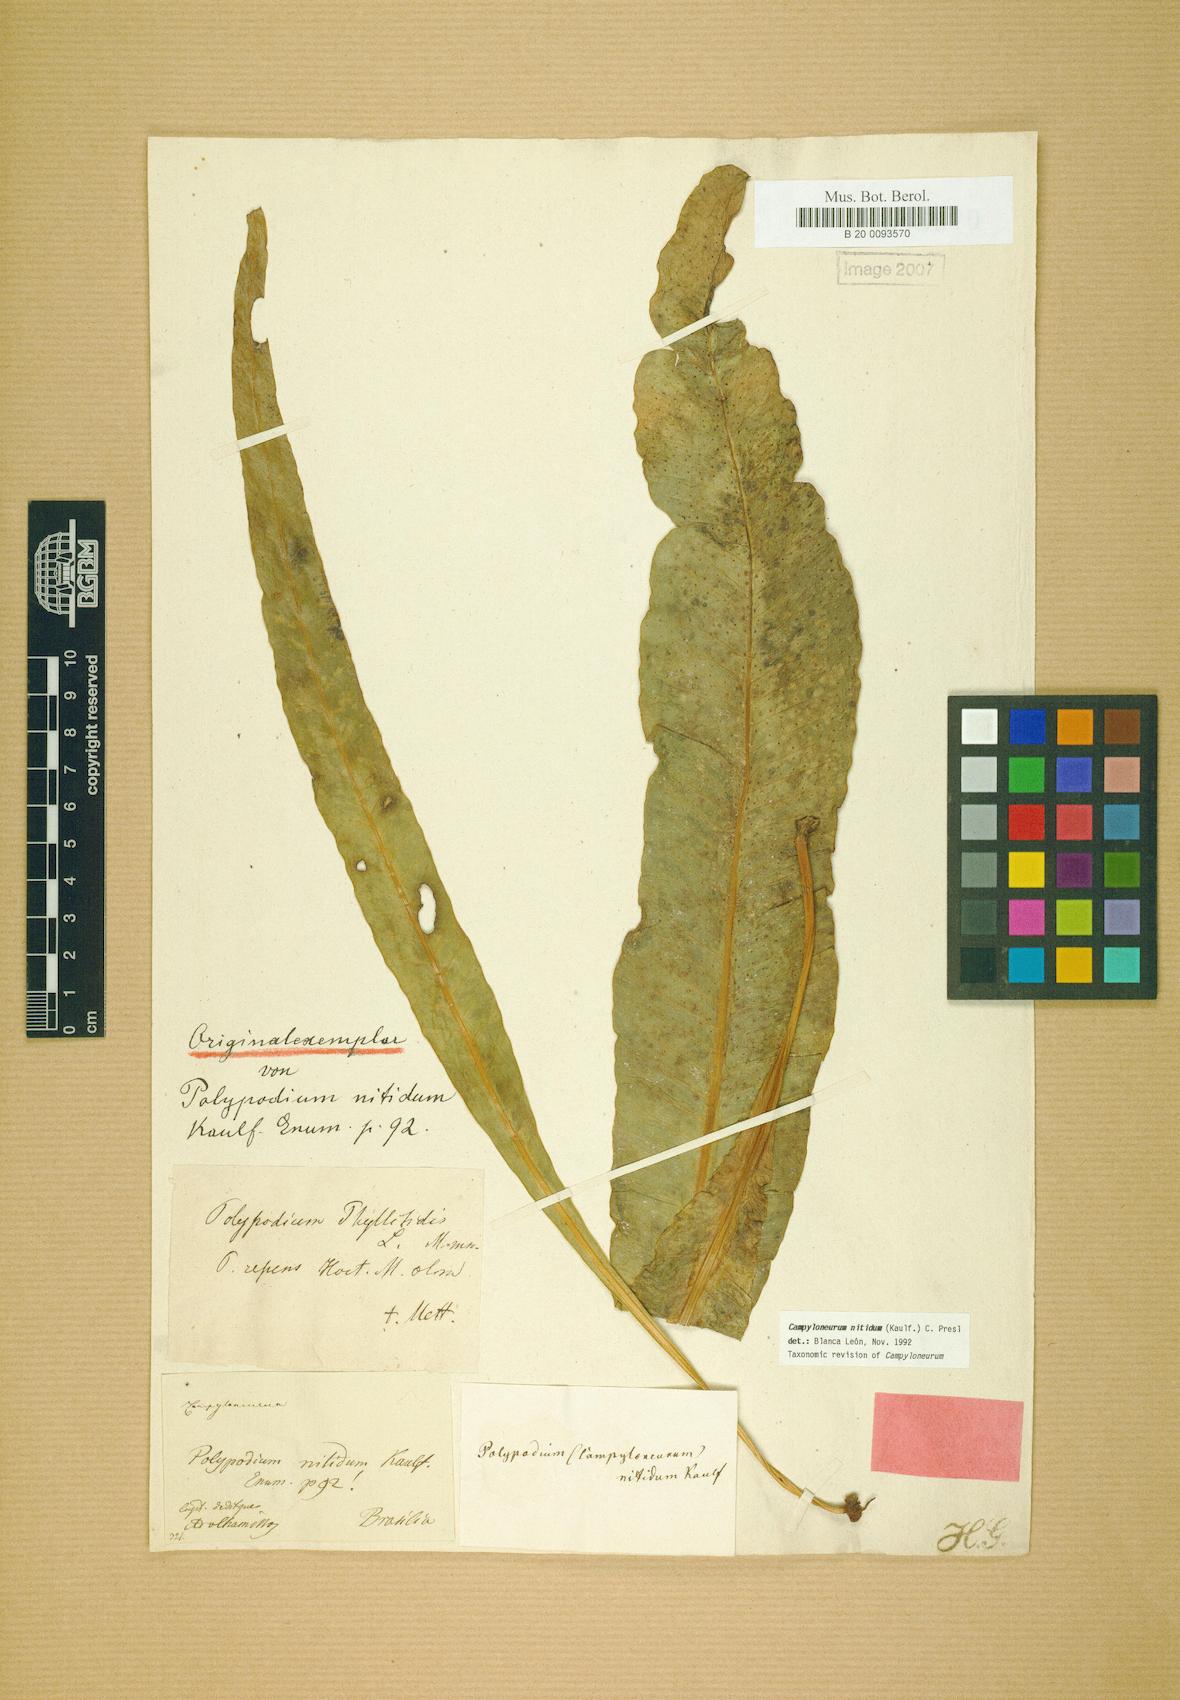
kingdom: Plantae
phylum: Tracheophyta
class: Polypodiopsida
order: Polypodiales
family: Polypodiaceae
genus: Campyloneurum
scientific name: Campyloneurum nitidum
